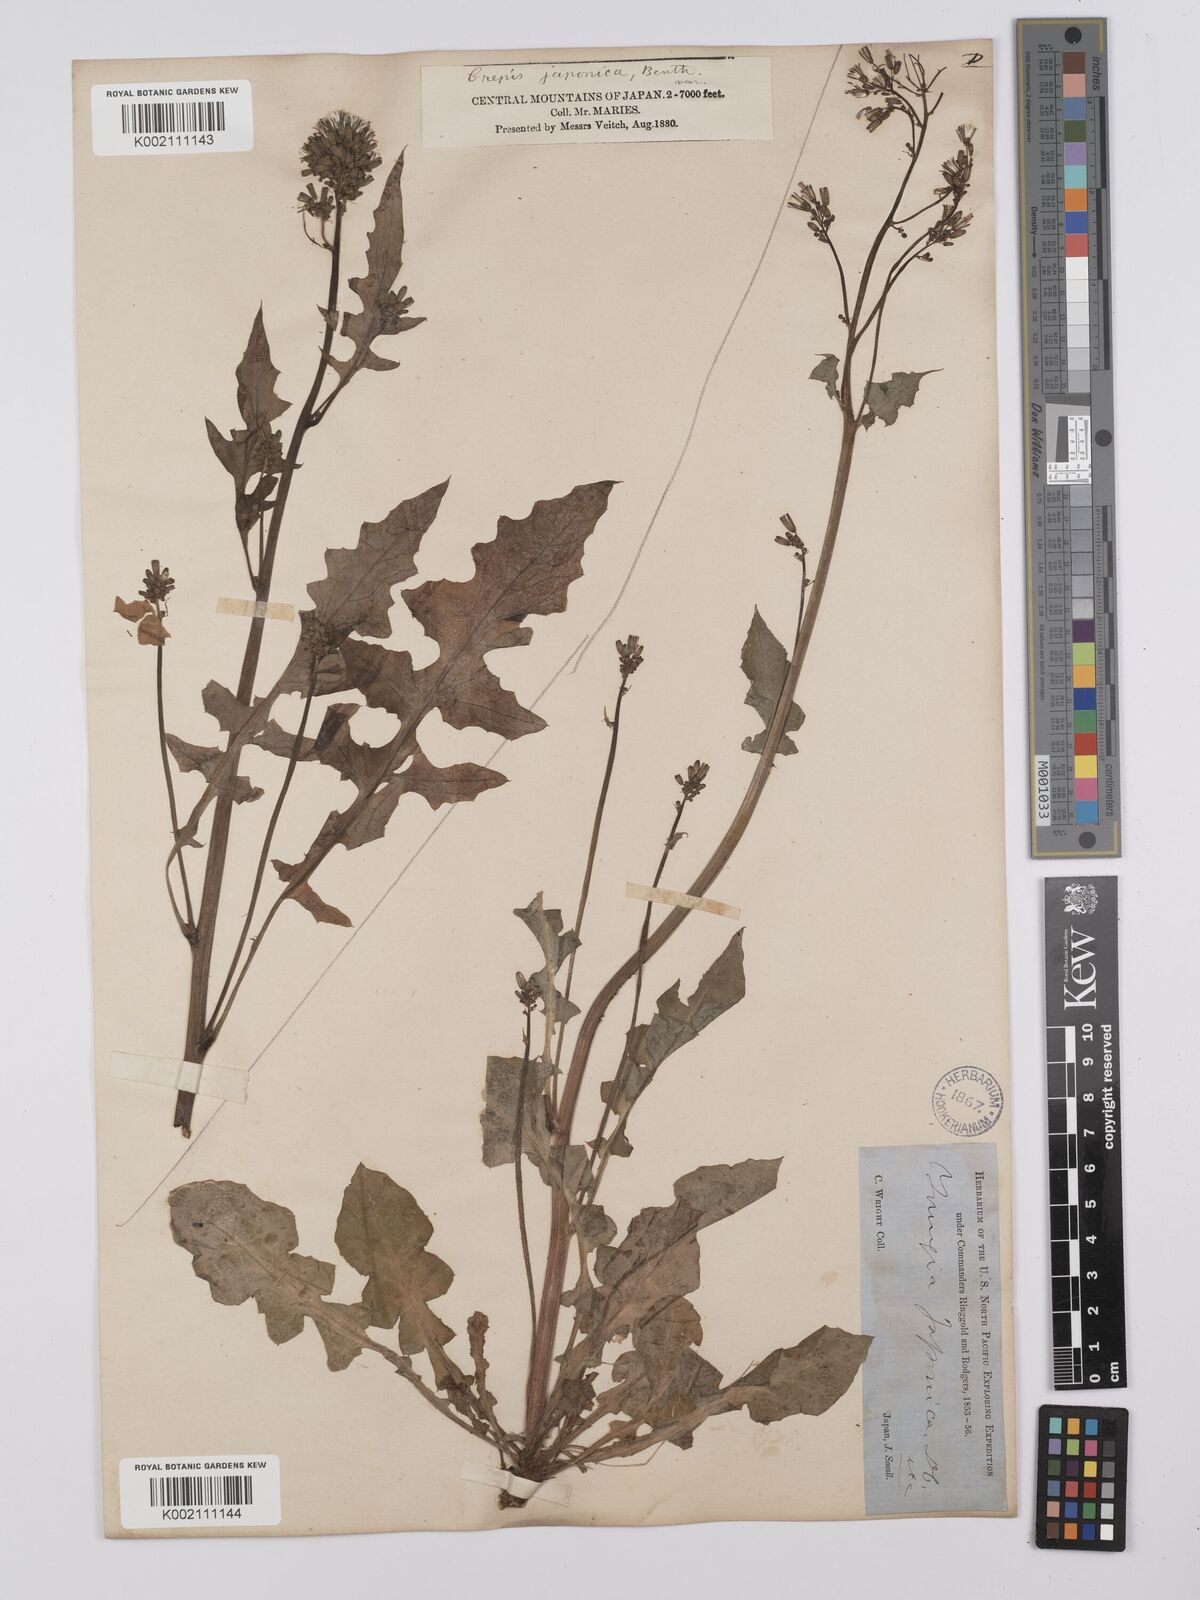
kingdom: Plantae
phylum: Tracheophyta
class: Magnoliopsida
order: Asterales
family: Asteraceae
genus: Youngia
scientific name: Youngia japonica
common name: Oriental false hawksbeard
